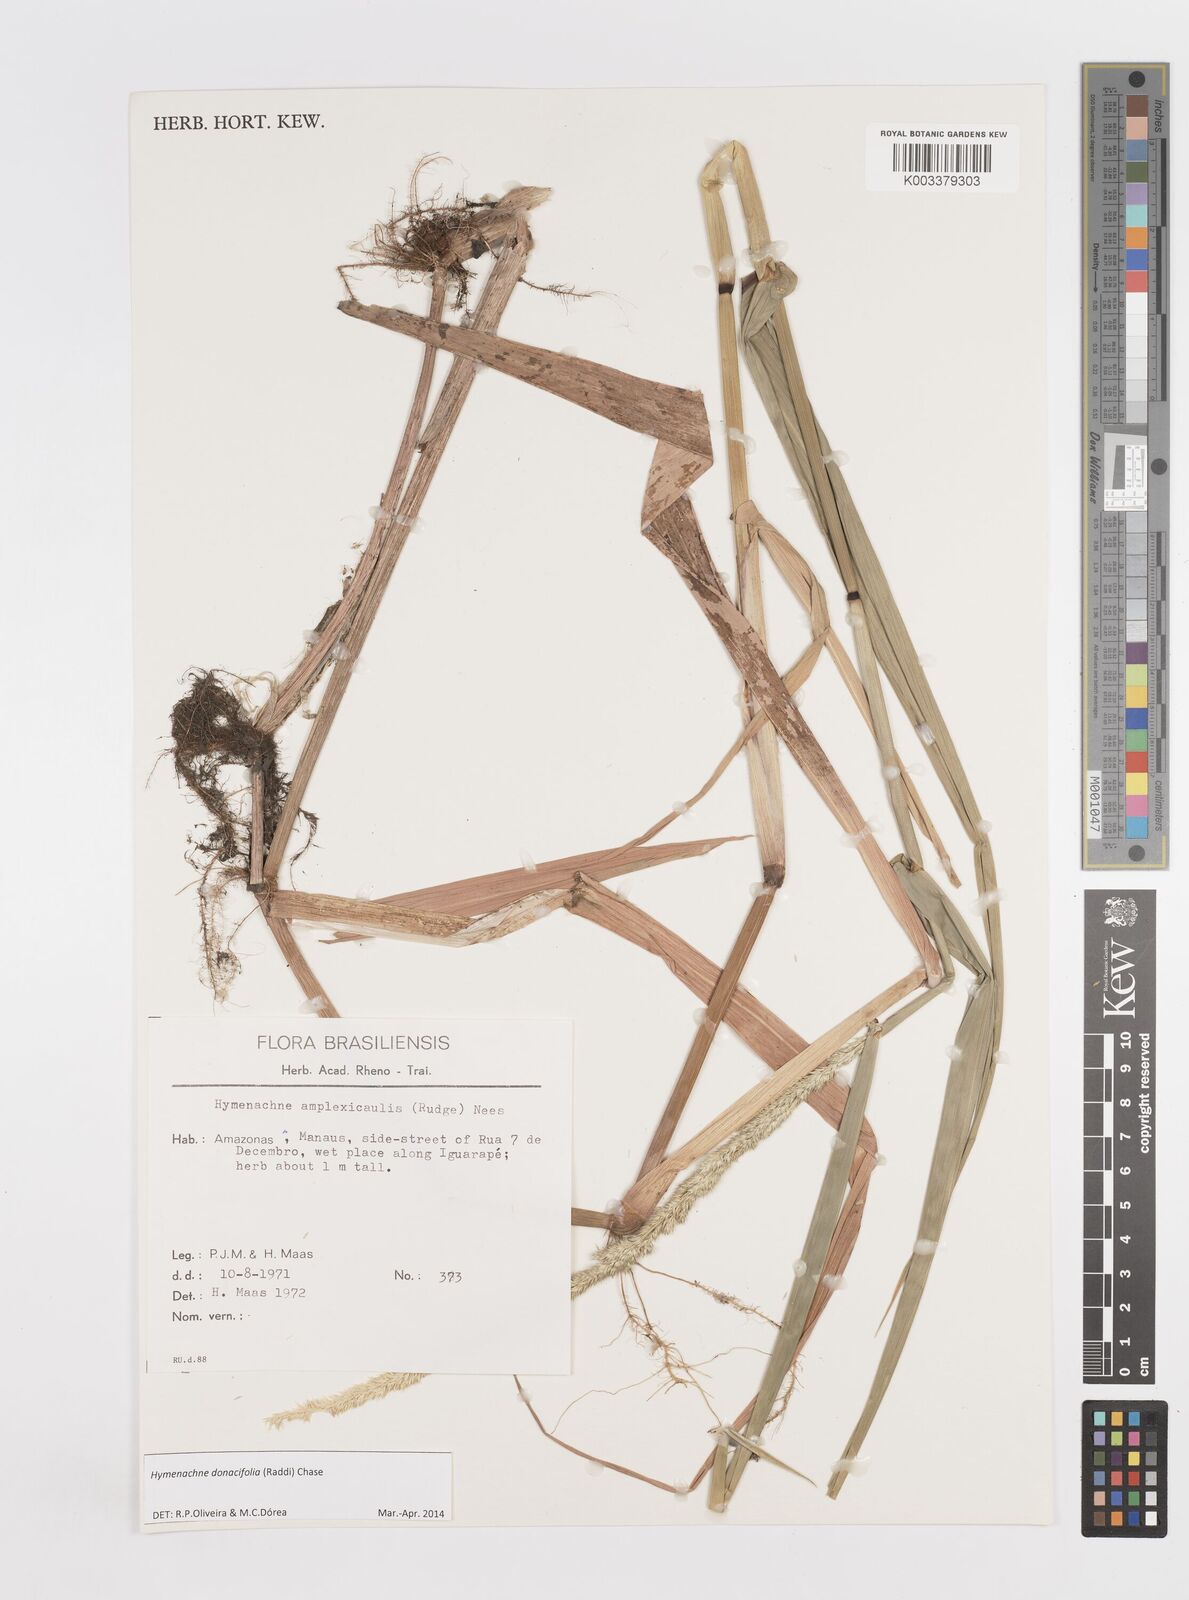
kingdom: Plantae
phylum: Tracheophyta
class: Liliopsida
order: Poales
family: Poaceae
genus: Hymenachne
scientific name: Hymenachne amplexicaulis
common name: Olive hymenachne
